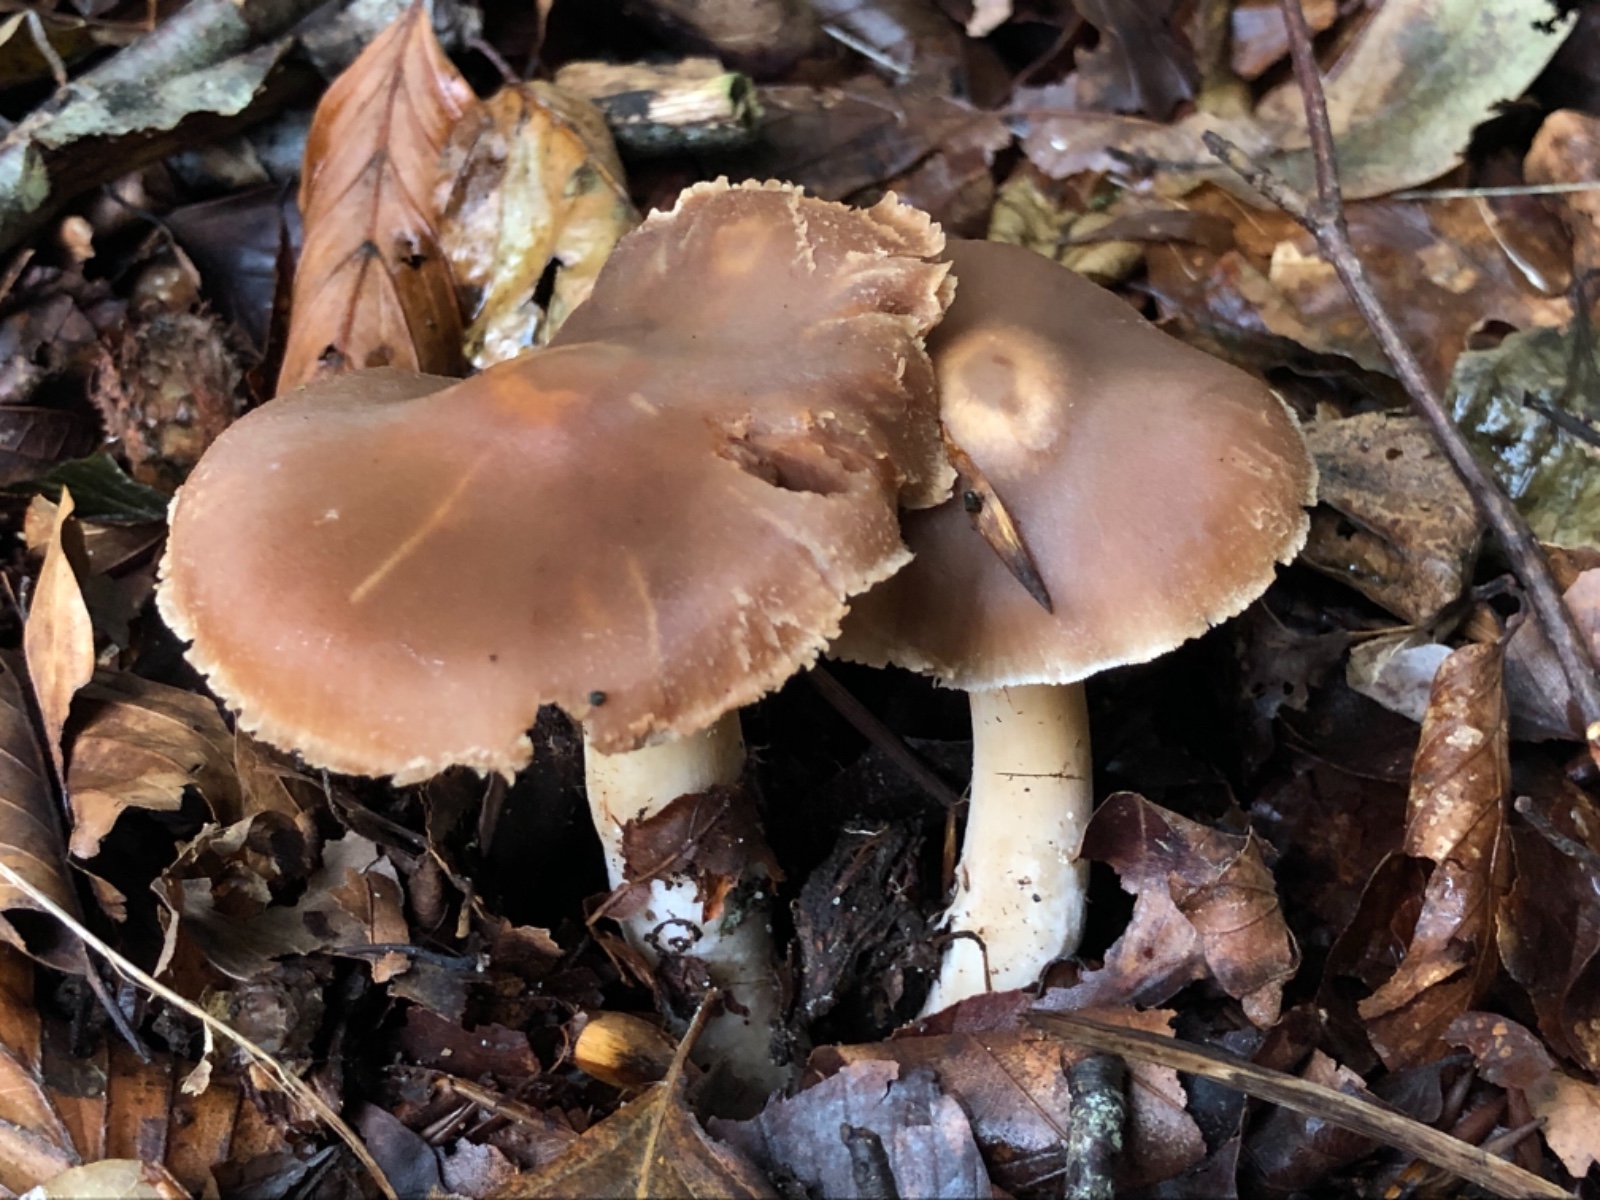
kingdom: Fungi
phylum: Basidiomycota
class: Agaricomycetes
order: Agaricales
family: Cortinariaceae
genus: Cortinarius
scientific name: Cortinarius iners
